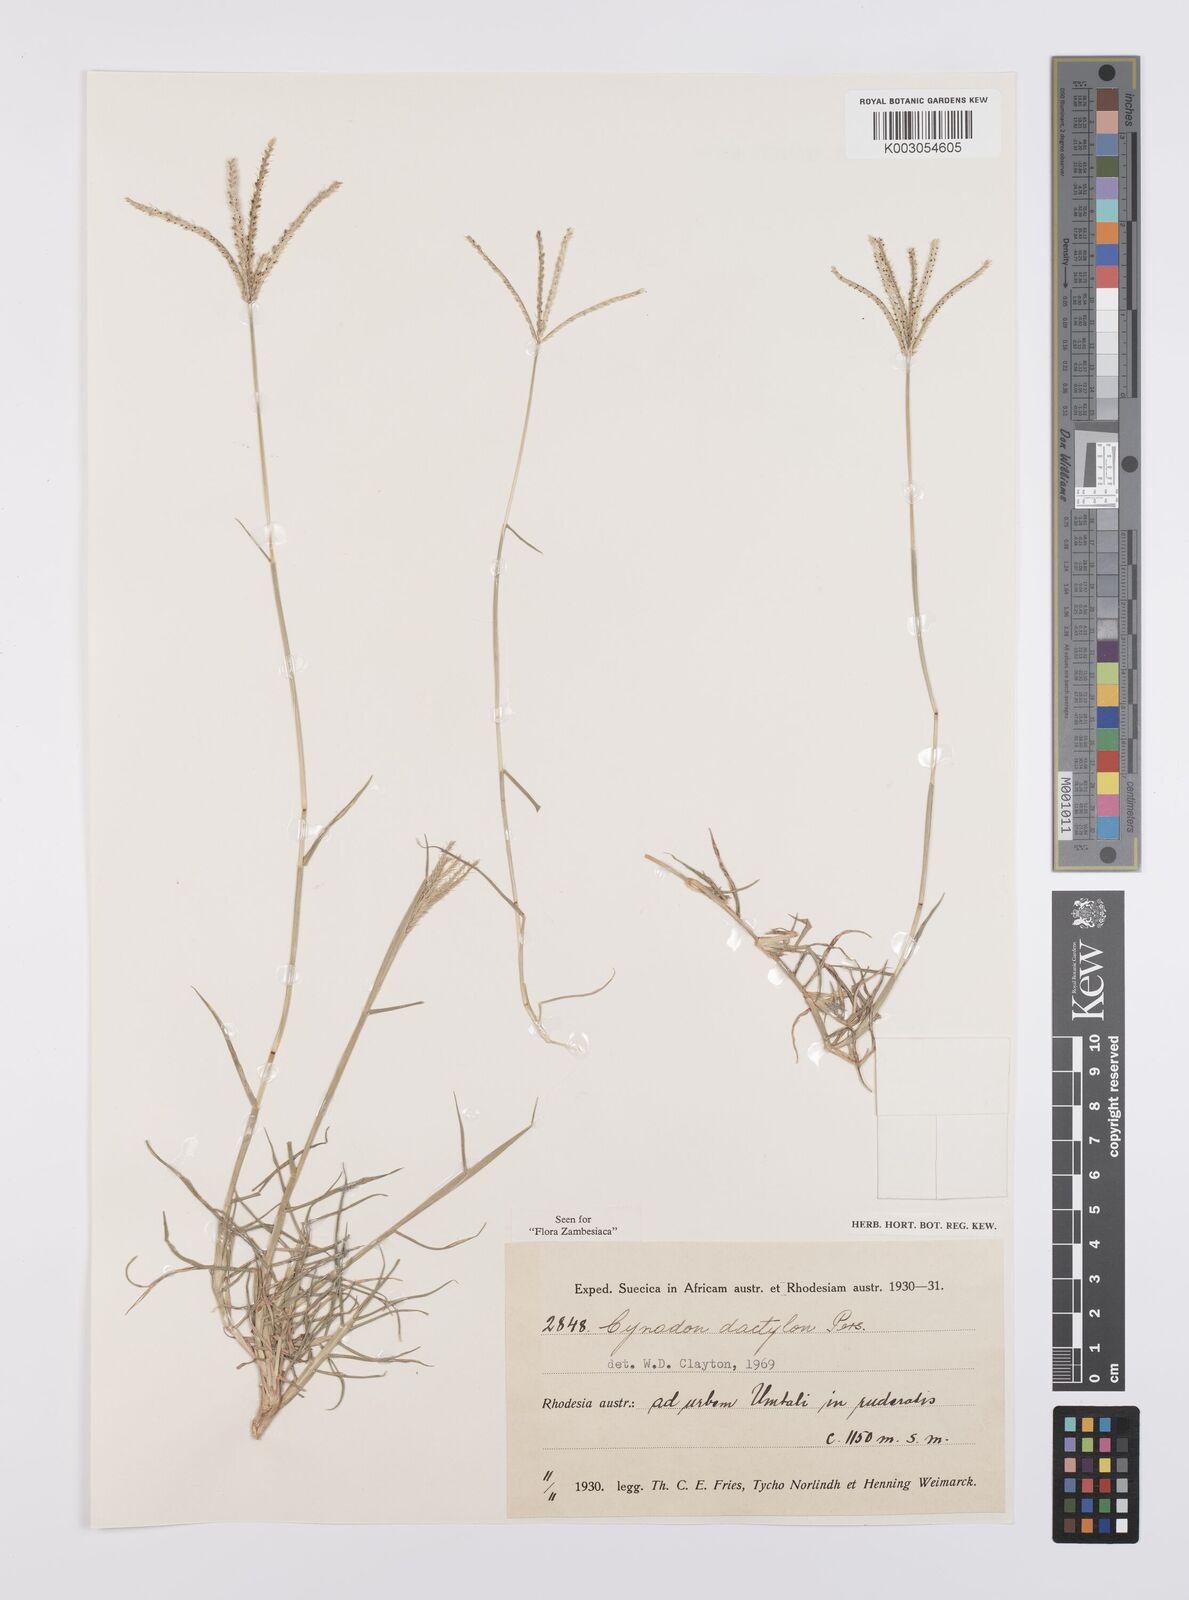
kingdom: Plantae
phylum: Tracheophyta
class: Liliopsida
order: Poales
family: Poaceae
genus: Cynodon
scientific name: Cynodon dactylon
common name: Bermuda grass
